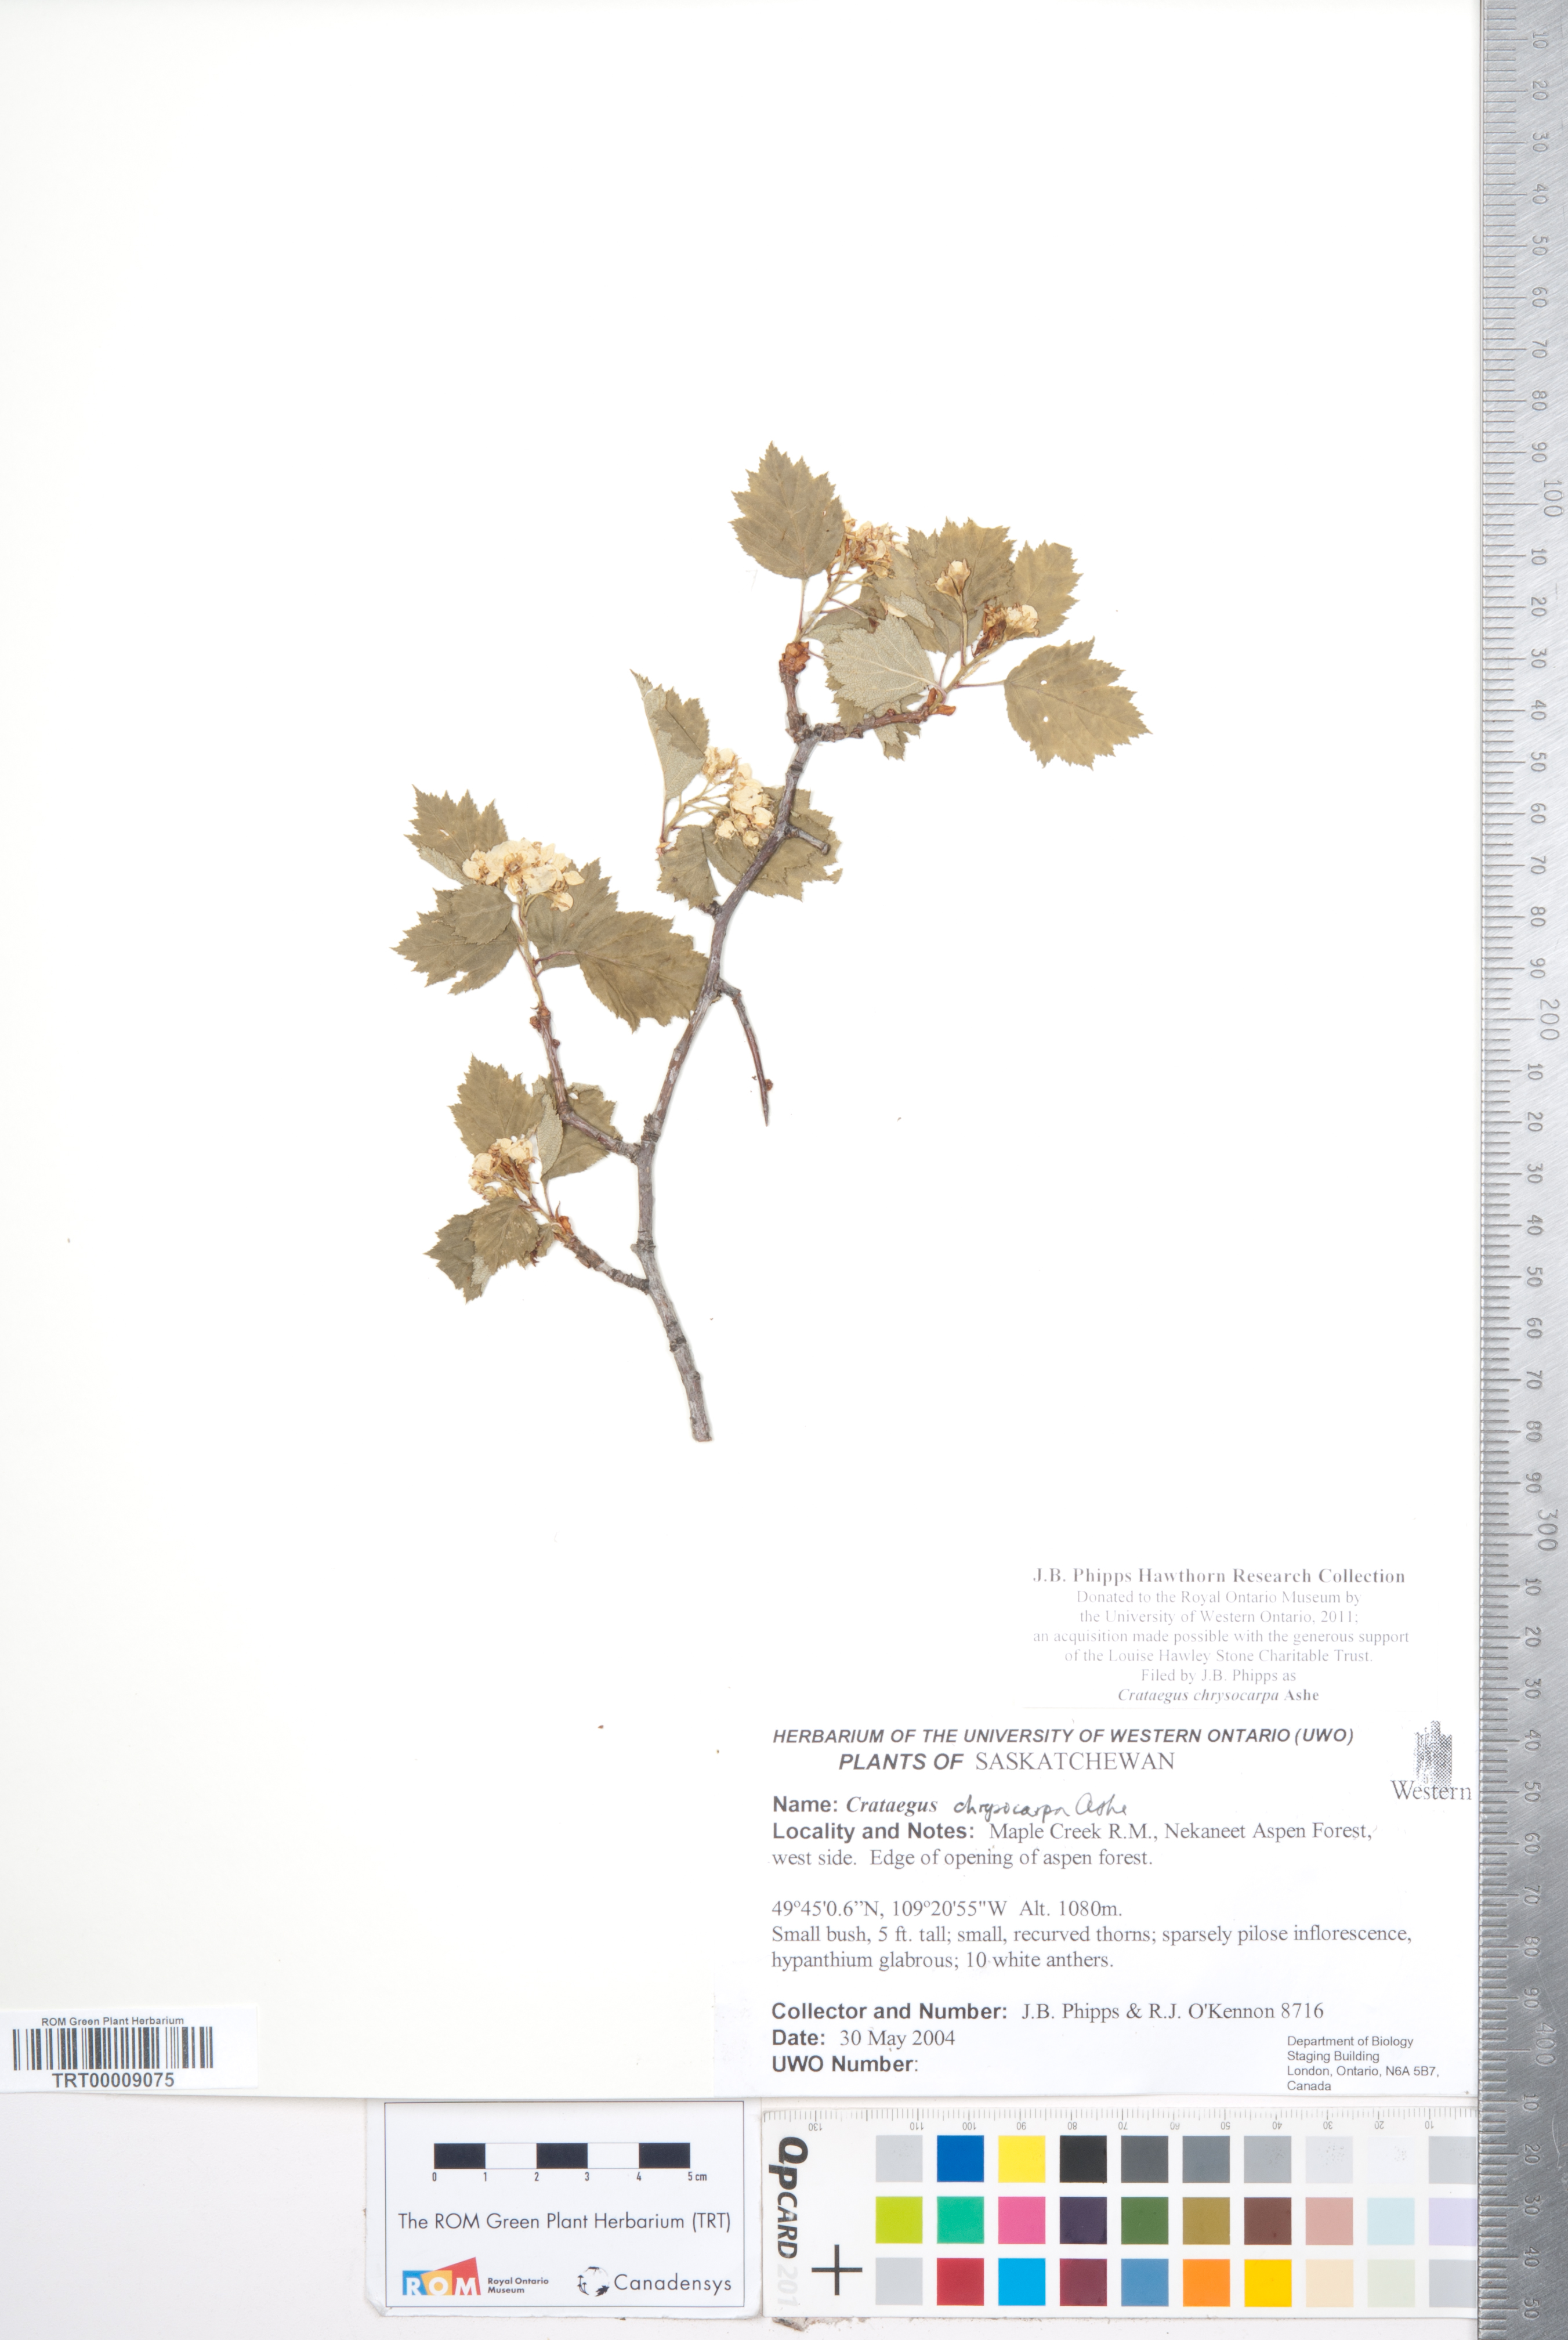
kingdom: Plantae
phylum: Tracheophyta
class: Magnoliopsida
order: Rosales
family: Rosaceae
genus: Crataegus
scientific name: Crataegus chrysocarpa
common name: Fire-berry hawthorn
